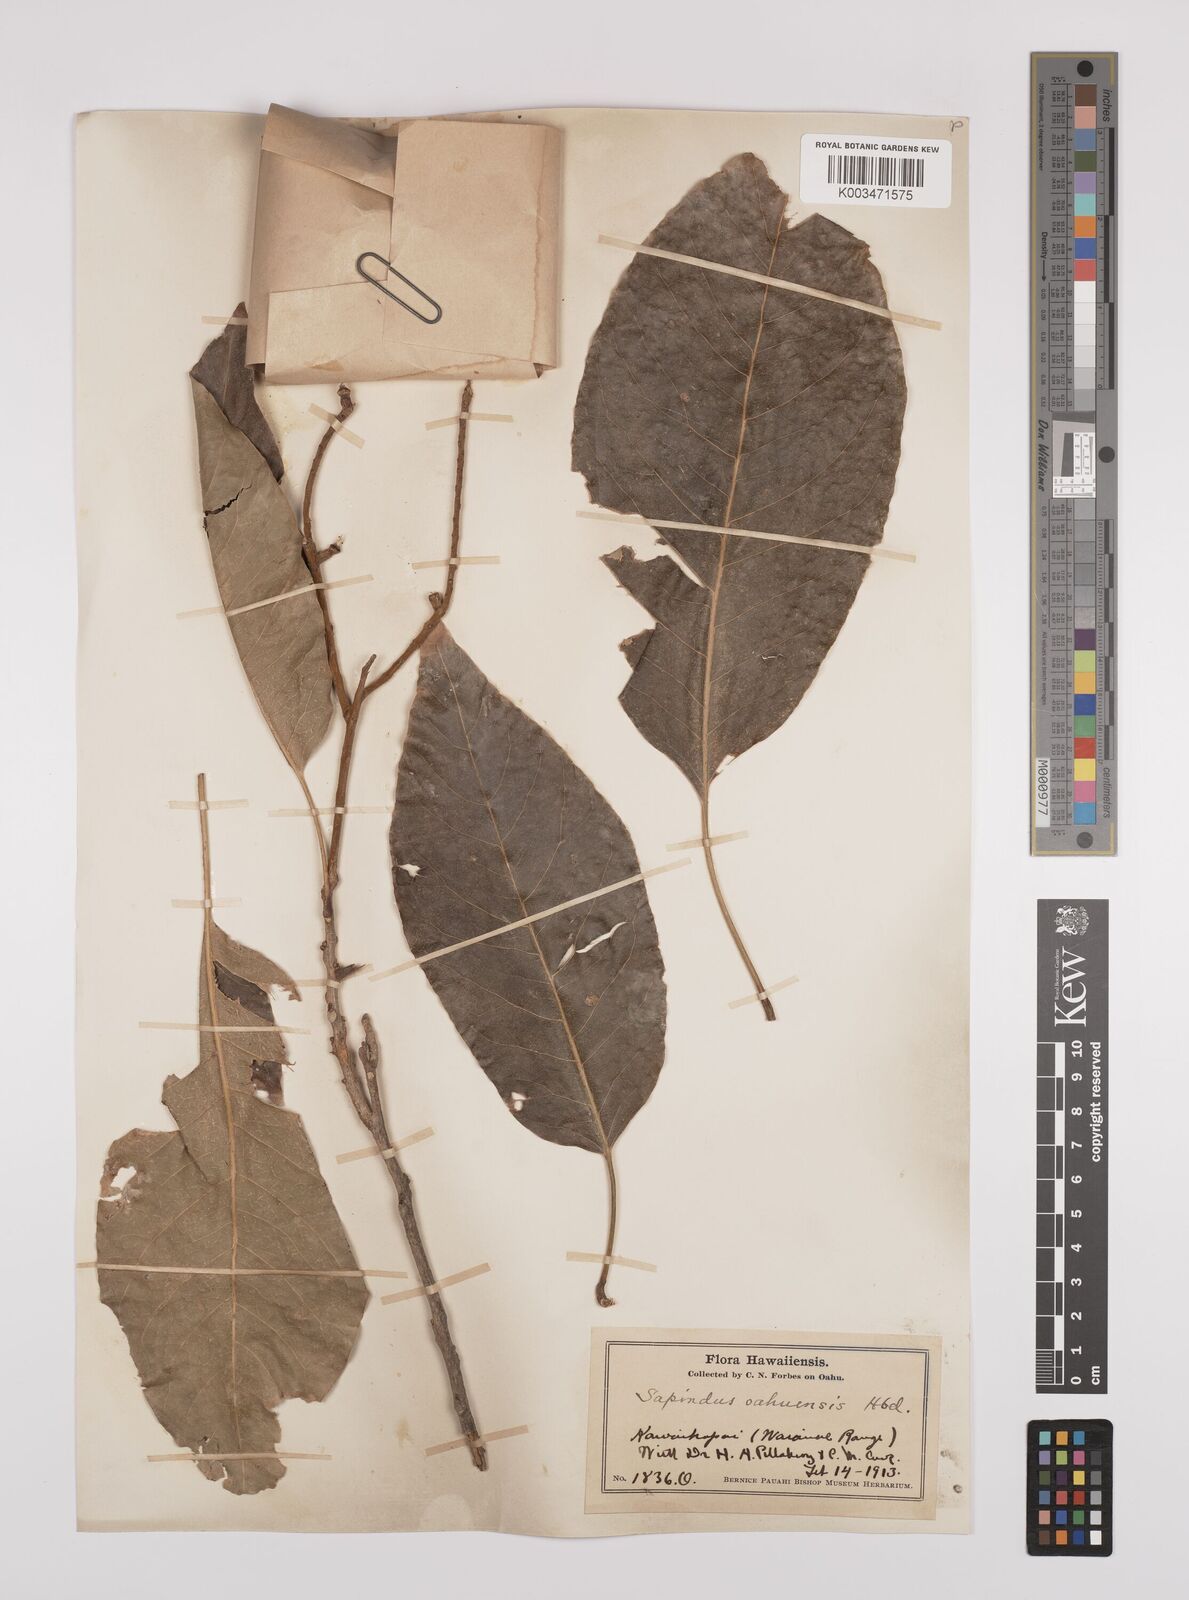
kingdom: Plantae
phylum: Tracheophyta
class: Magnoliopsida
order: Sapindales
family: Sapindaceae
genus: Sapindus
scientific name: Sapindus oahuensis
